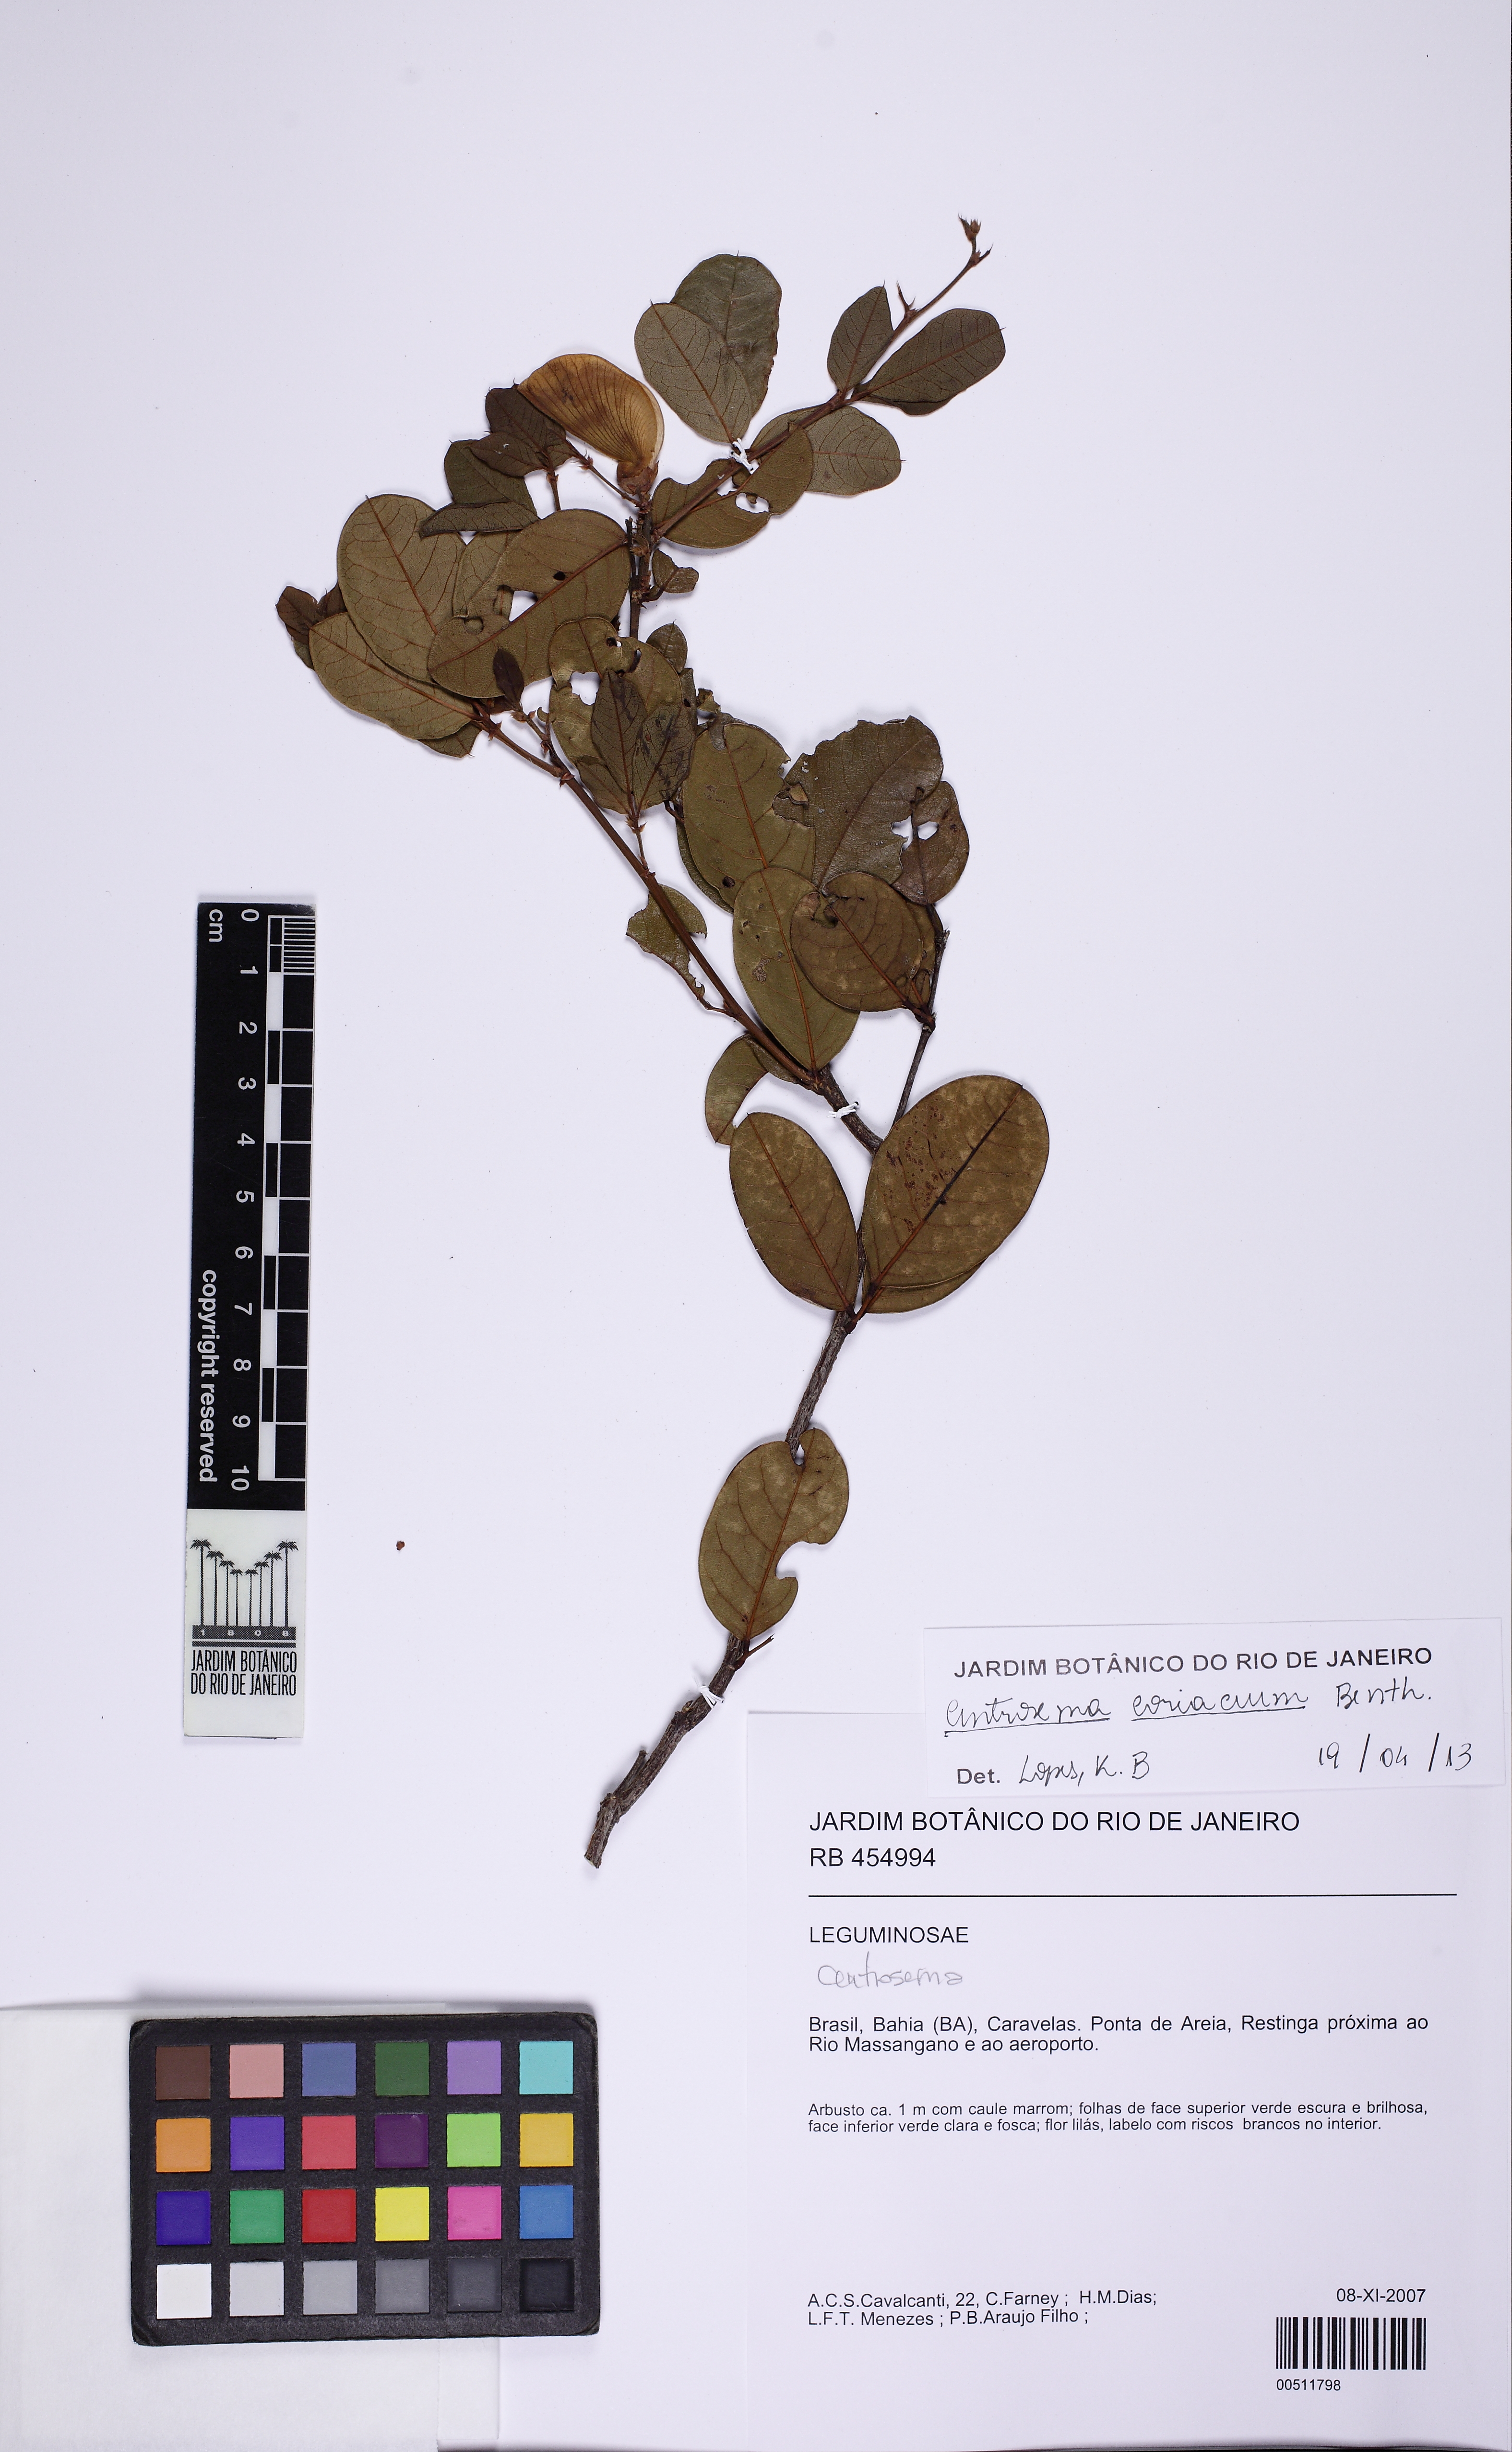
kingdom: Plantae
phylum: Tracheophyta
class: Magnoliopsida
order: Fabales
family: Fabaceae
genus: Centrosema
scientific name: Centrosema coriaceum
